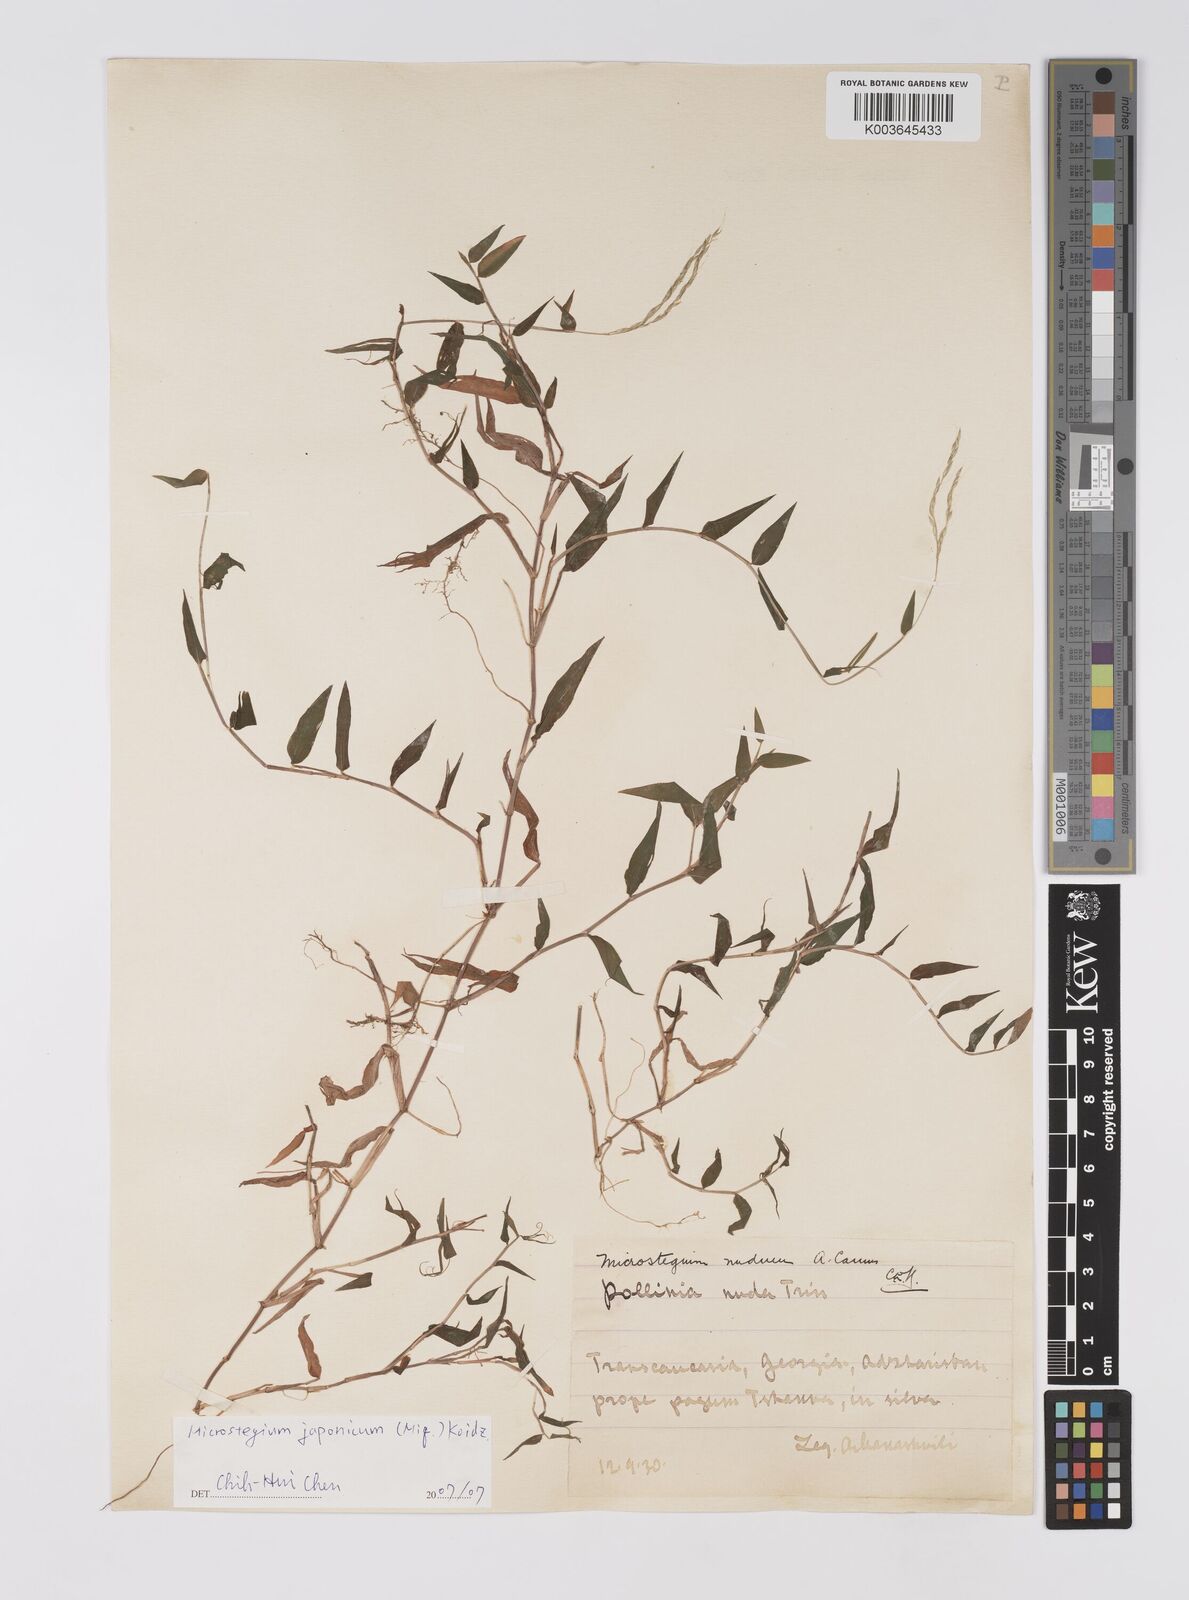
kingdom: Plantae
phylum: Tracheophyta
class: Liliopsida
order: Poales
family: Poaceae
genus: Microstegium
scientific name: Microstegium japonicum
